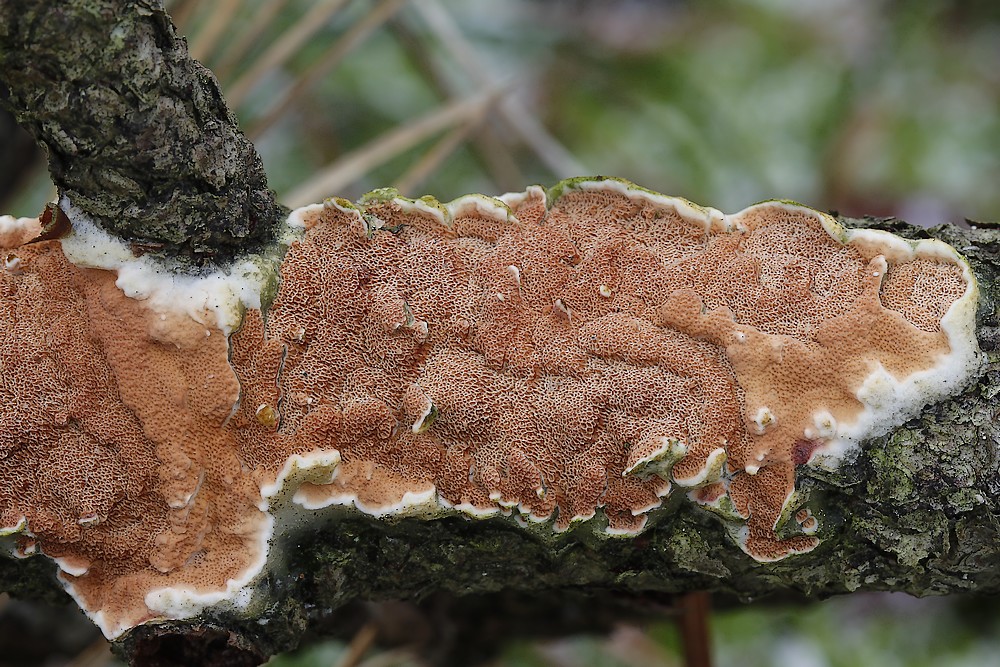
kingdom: Fungi
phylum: Basidiomycota
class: Agaricomycetes
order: Polyporales
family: Irpicaceae
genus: Meruliopsis
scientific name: Meruliopsis taxicola
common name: purpurbrun foldporesvamp
